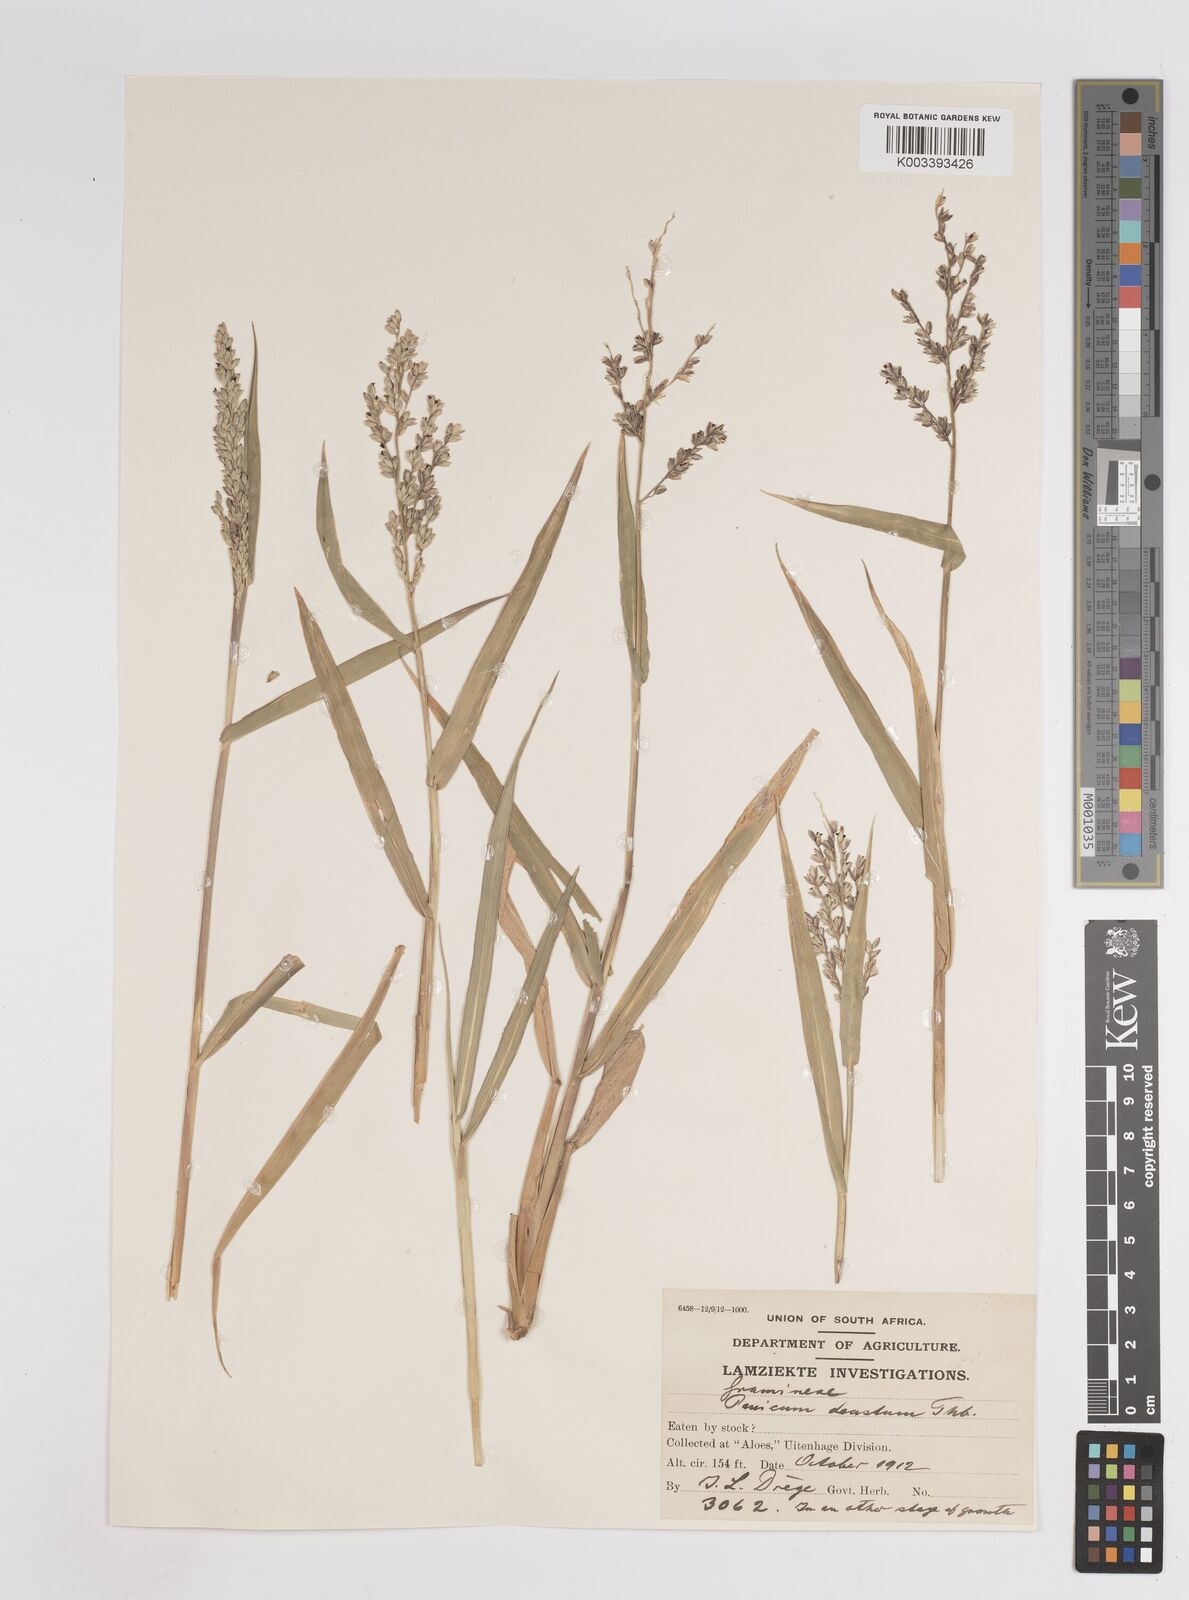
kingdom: Plantae
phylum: Tracheophyta
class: Liliopsida
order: Poales
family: Poaceae
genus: Panicum
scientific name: Panicum deustum
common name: Reed panicum
